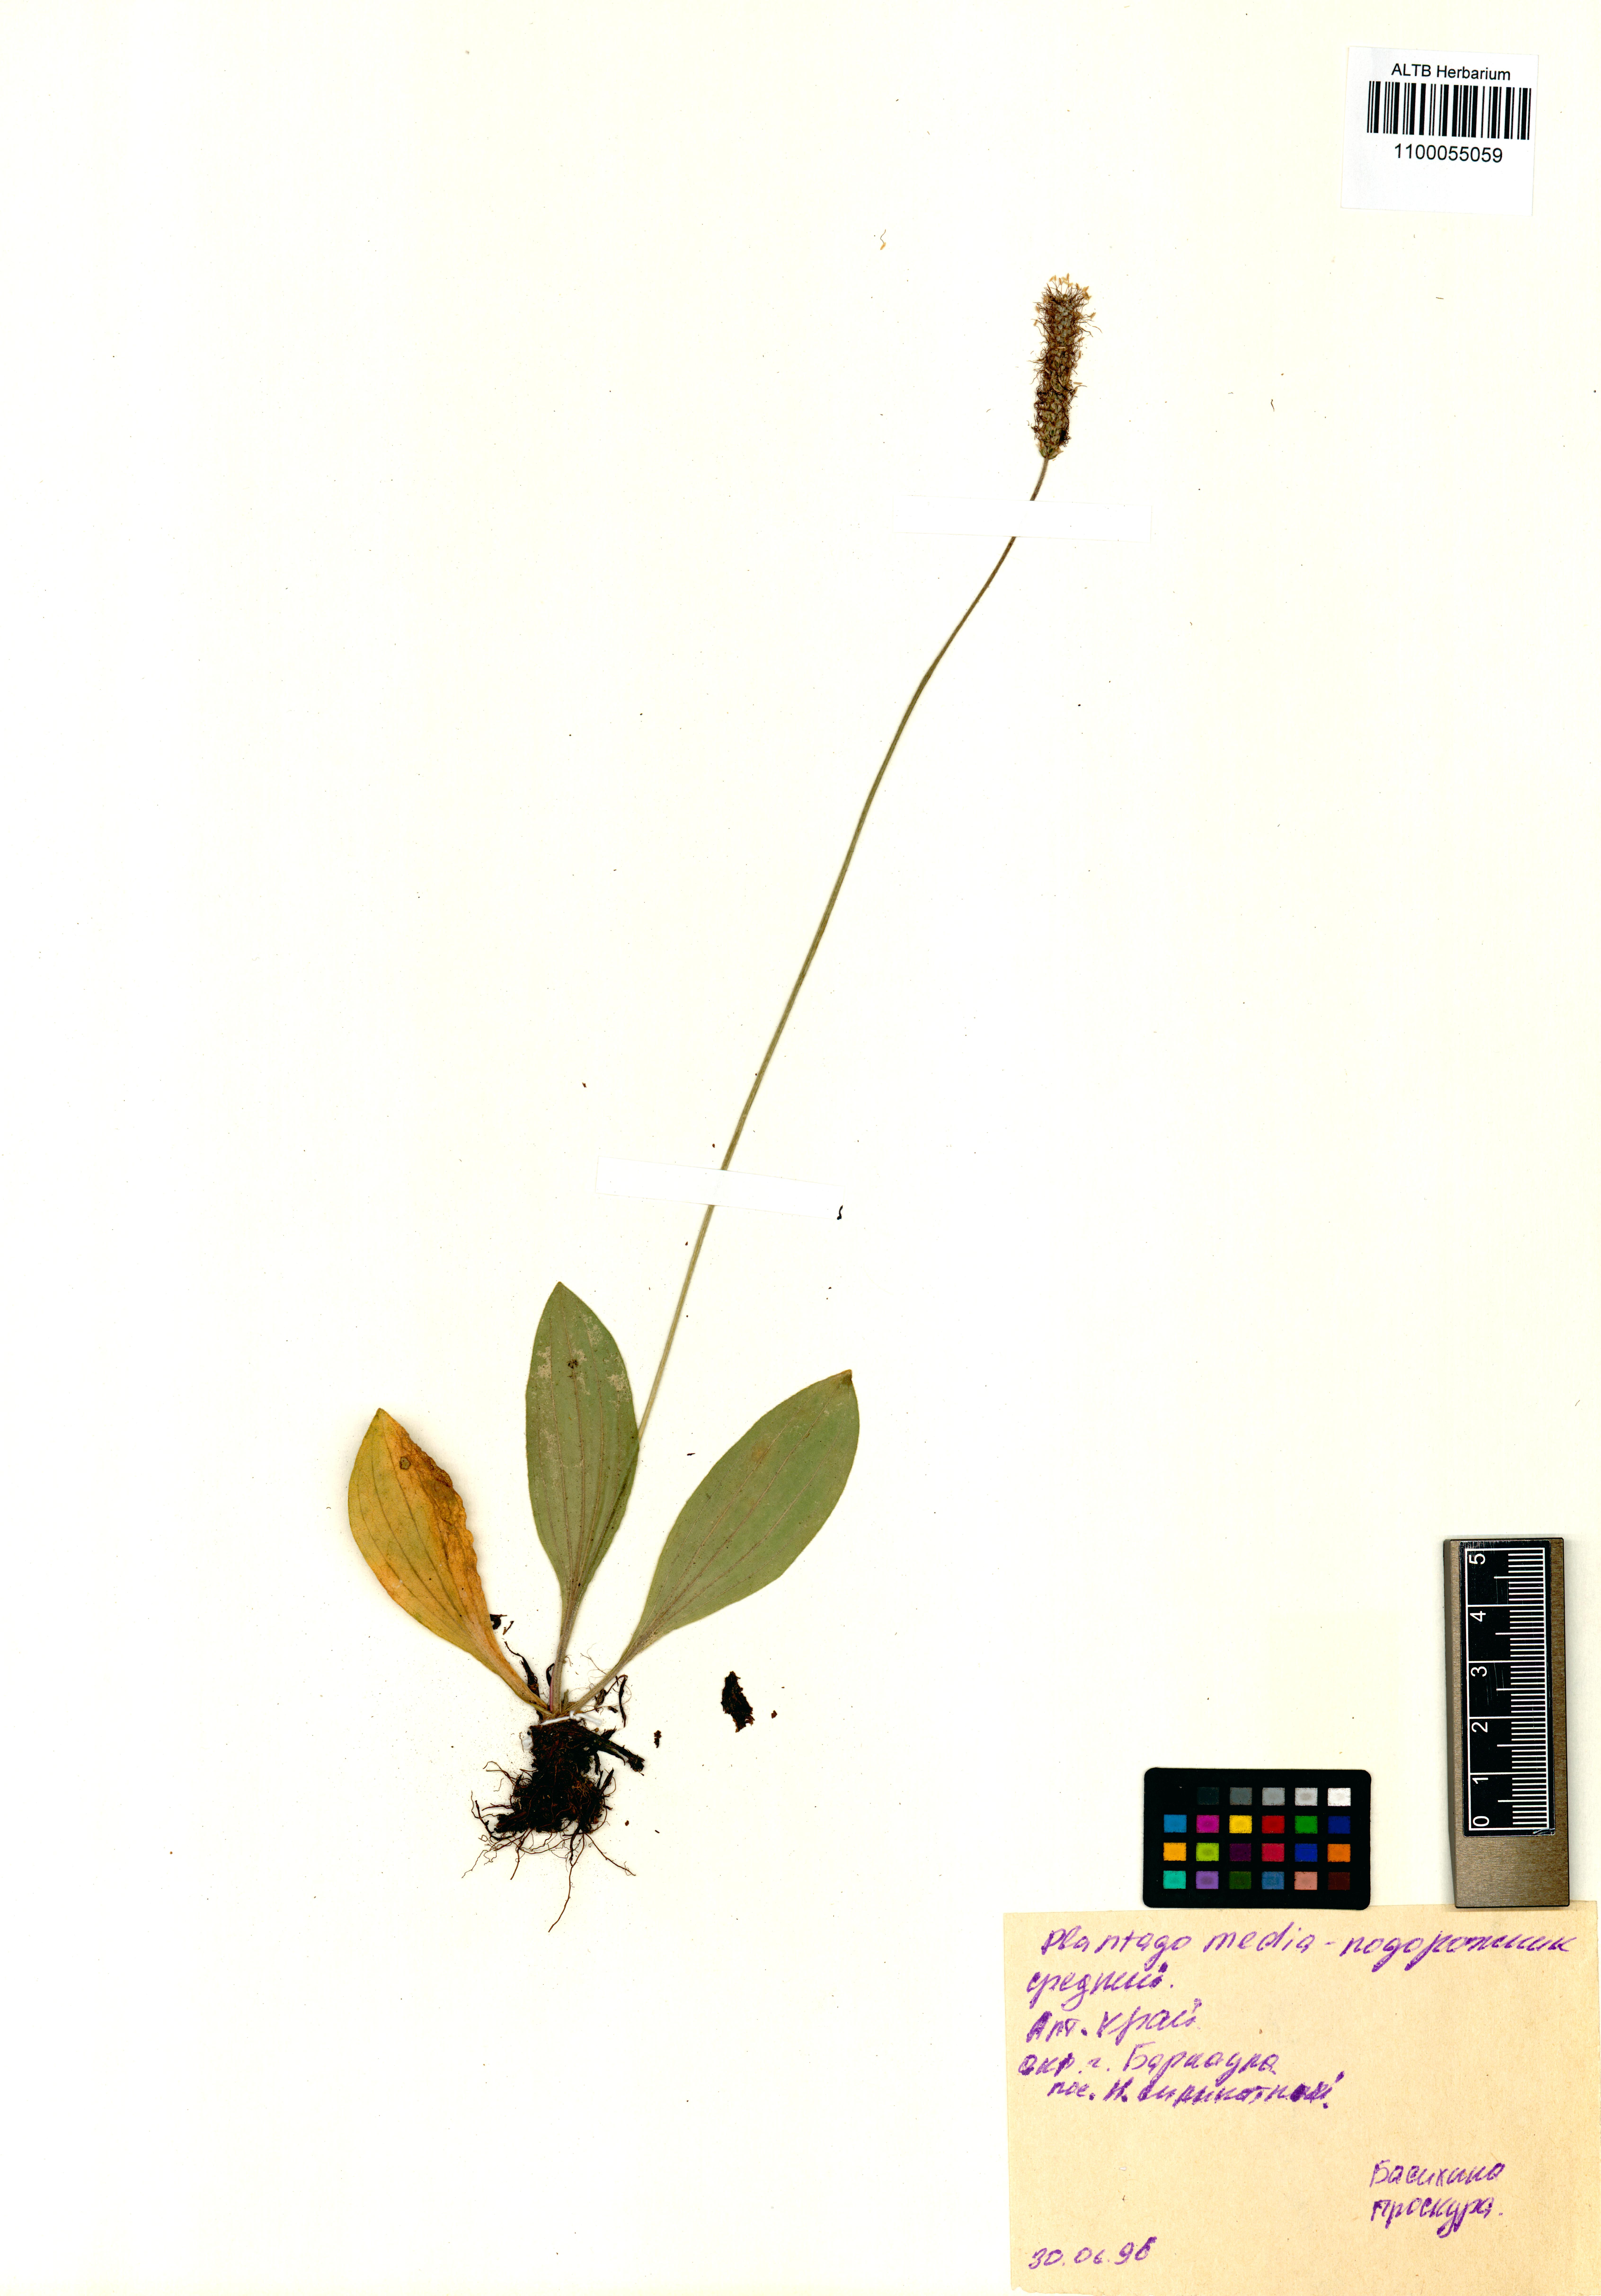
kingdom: Plantae
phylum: Tracheophyta
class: Magnoliopsida
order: Lamiales
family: Plantaginaceae
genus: Plantago
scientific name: Plantago media
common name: Hoary plantain
